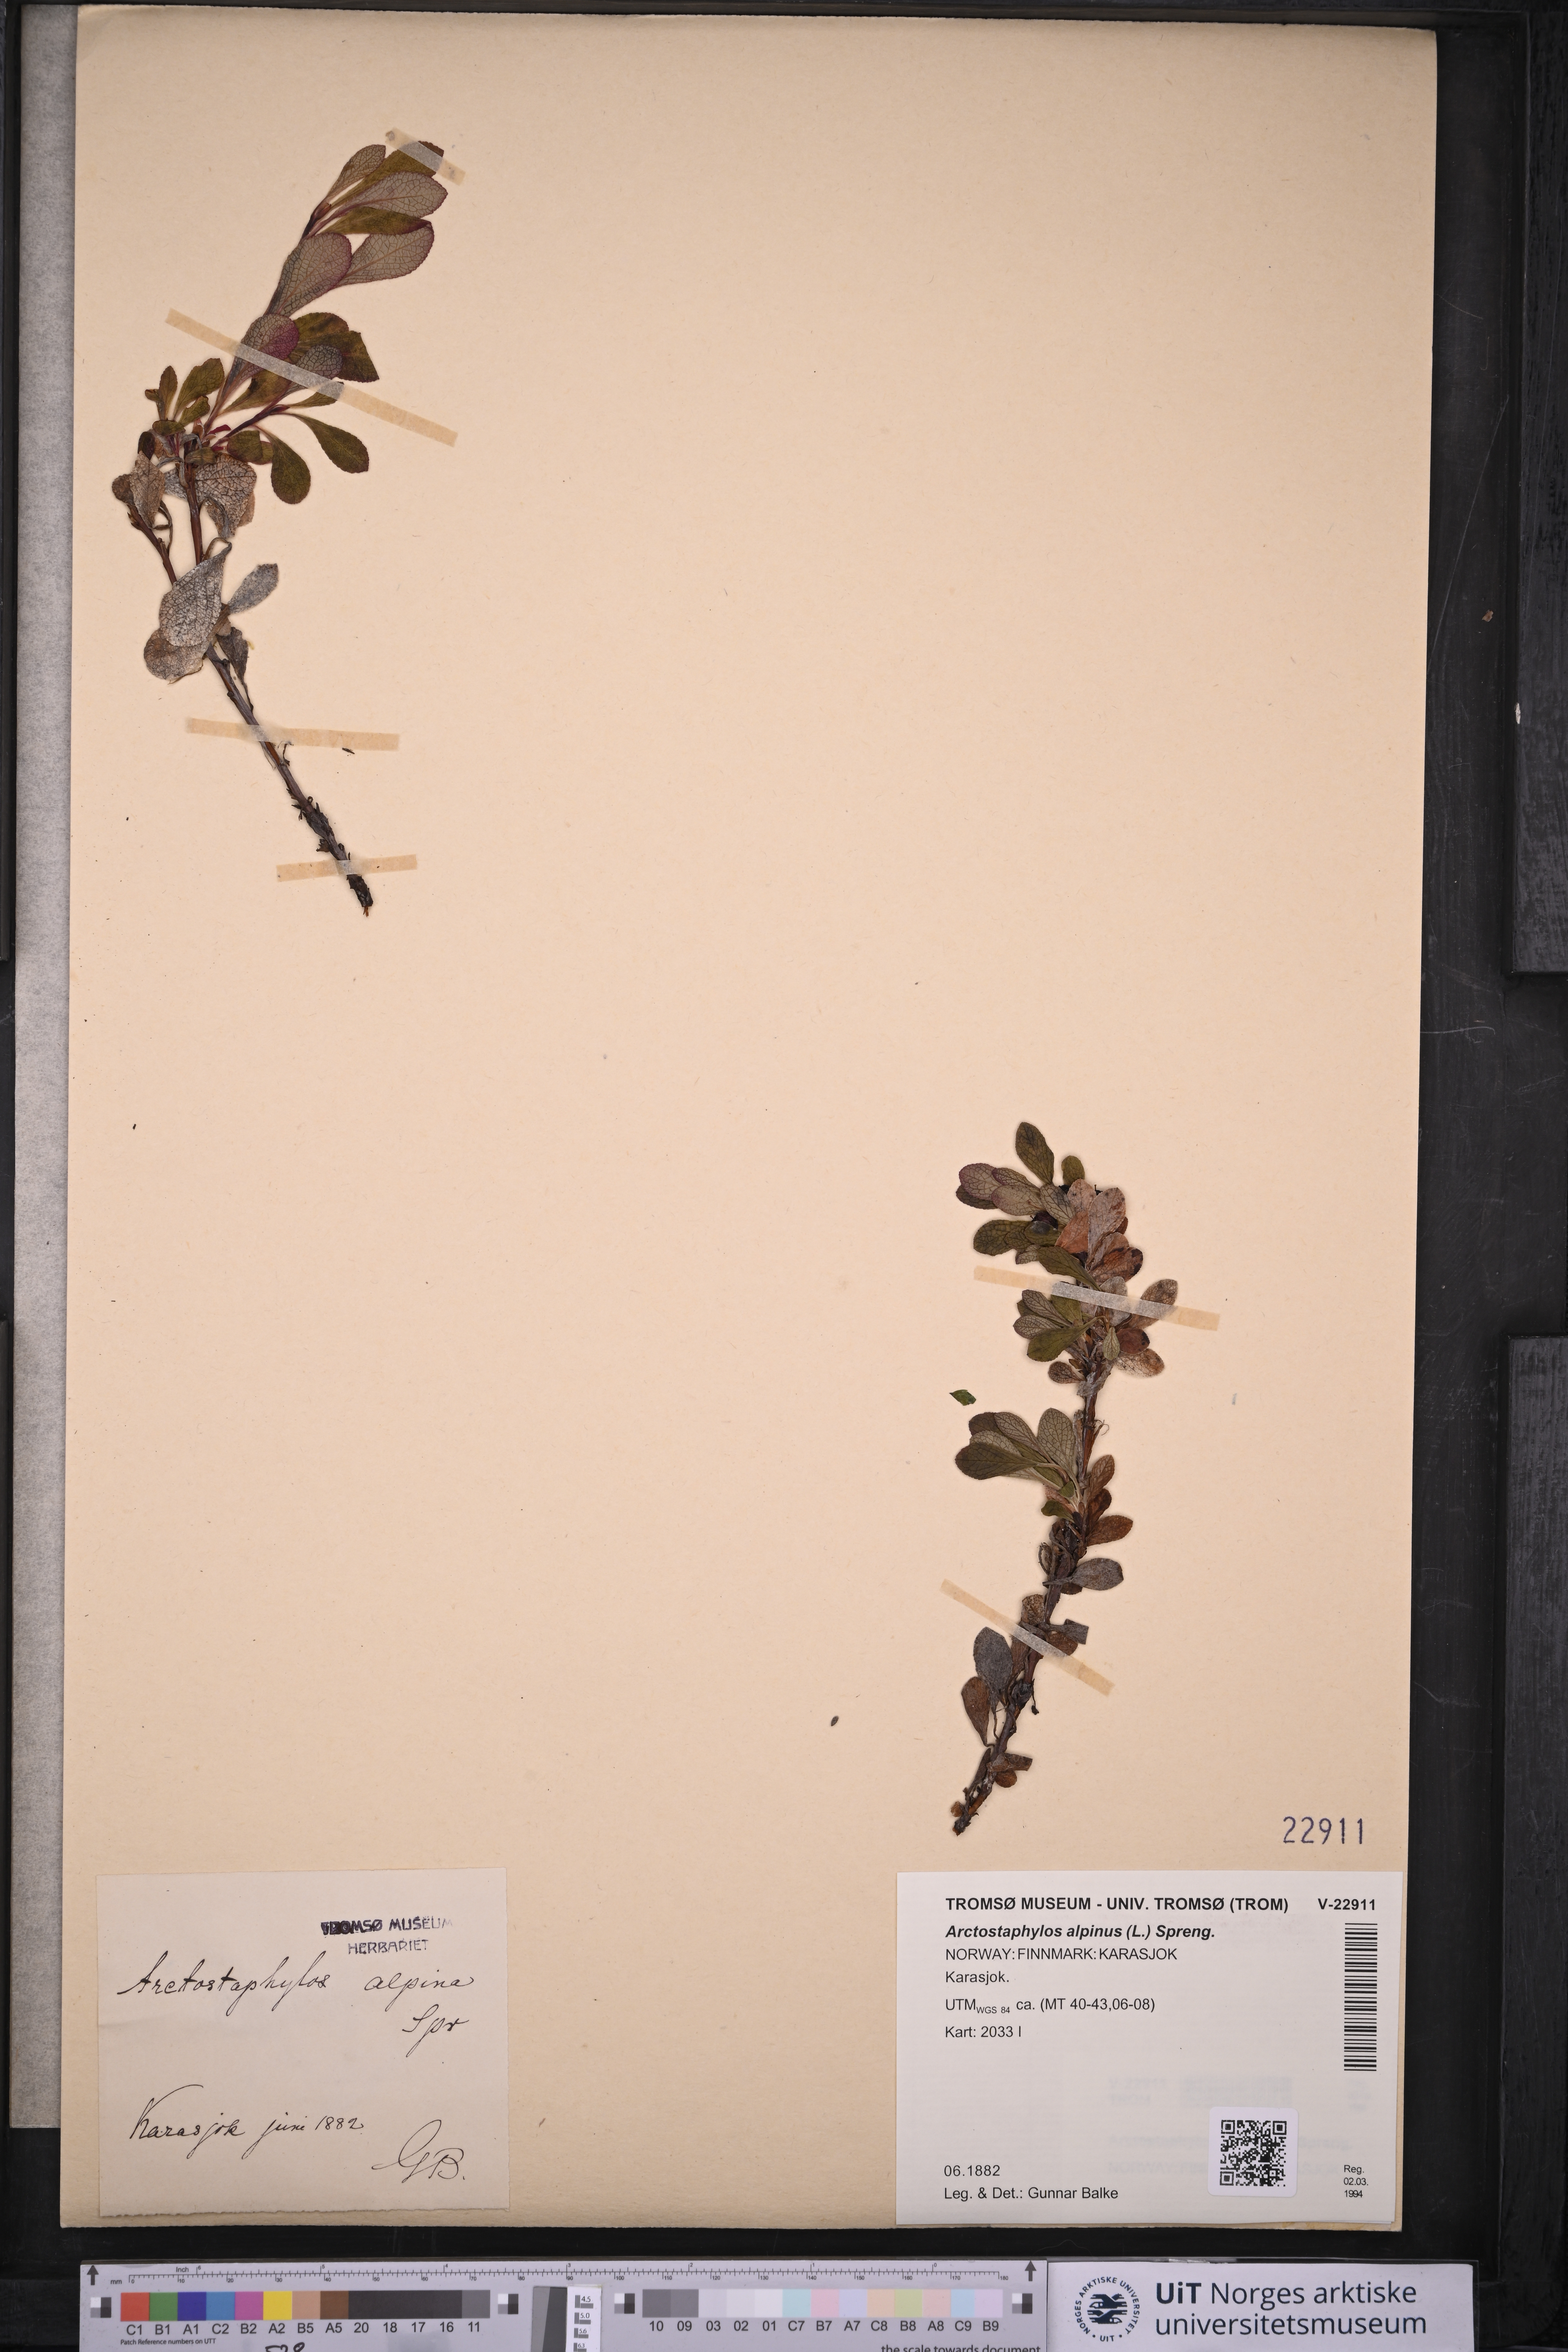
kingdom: Plantae
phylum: Tracheophyta
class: Magnoliopsida
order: Ericales
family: Ericaceae
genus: Arctostaphylos
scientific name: Arctostaphylos alpinus
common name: Alpine bearberry
